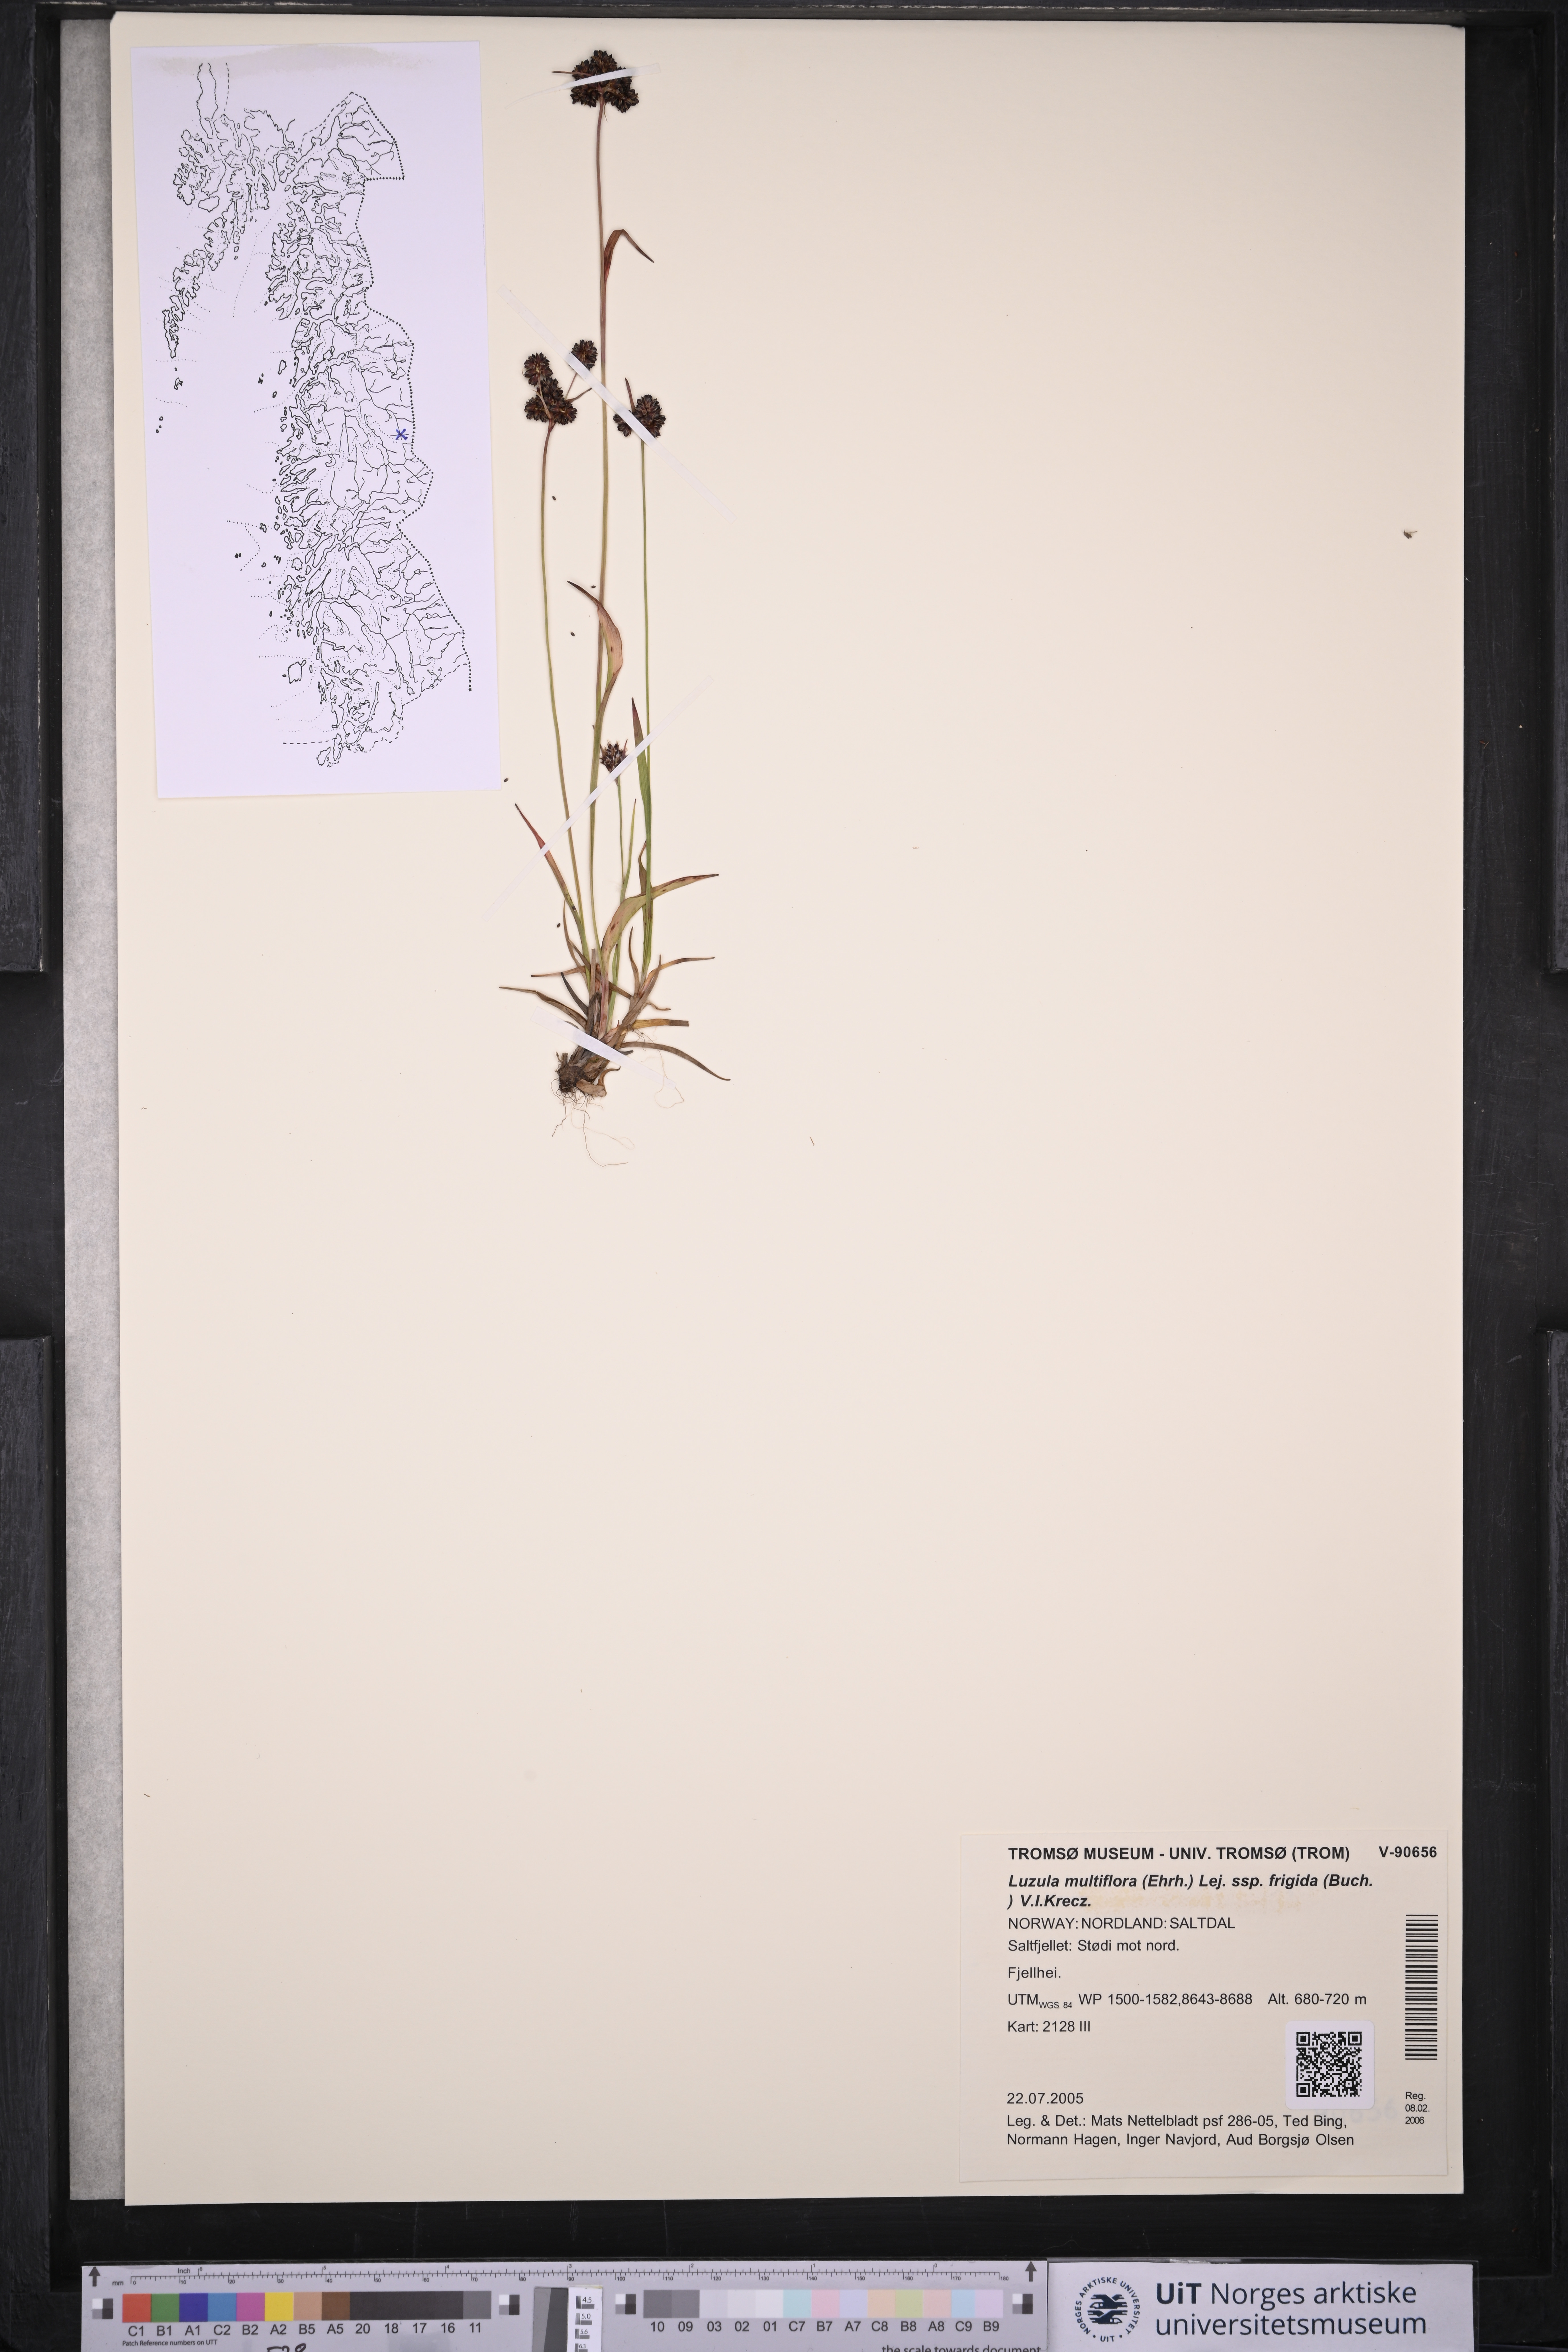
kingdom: Plantae
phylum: Tracheophyta
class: Liliopsida
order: Poales
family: Juncaceae
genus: Luzula
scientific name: Luzula multiflora
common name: Heath wood-rush
